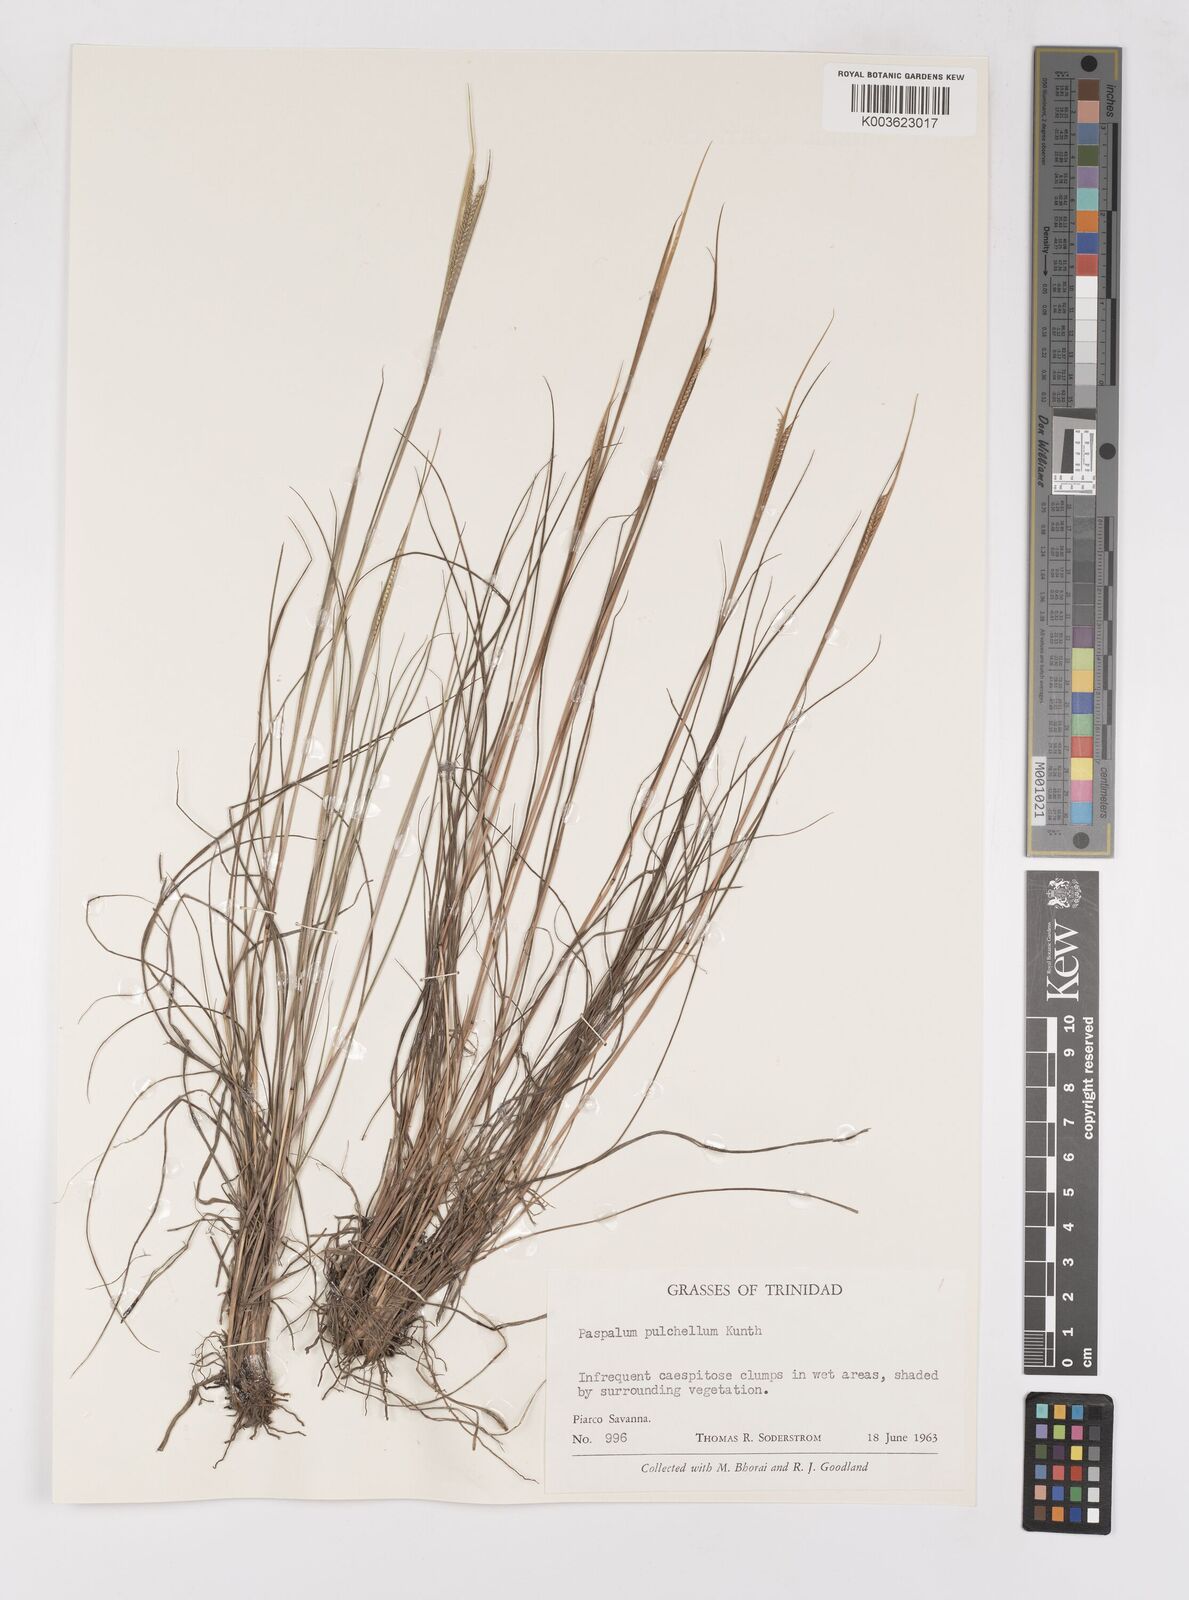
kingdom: Plantae
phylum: Tracheophyta
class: Liliopsida
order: Poales
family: Poaceae
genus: Paspalum
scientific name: Paspalum pulchellum
